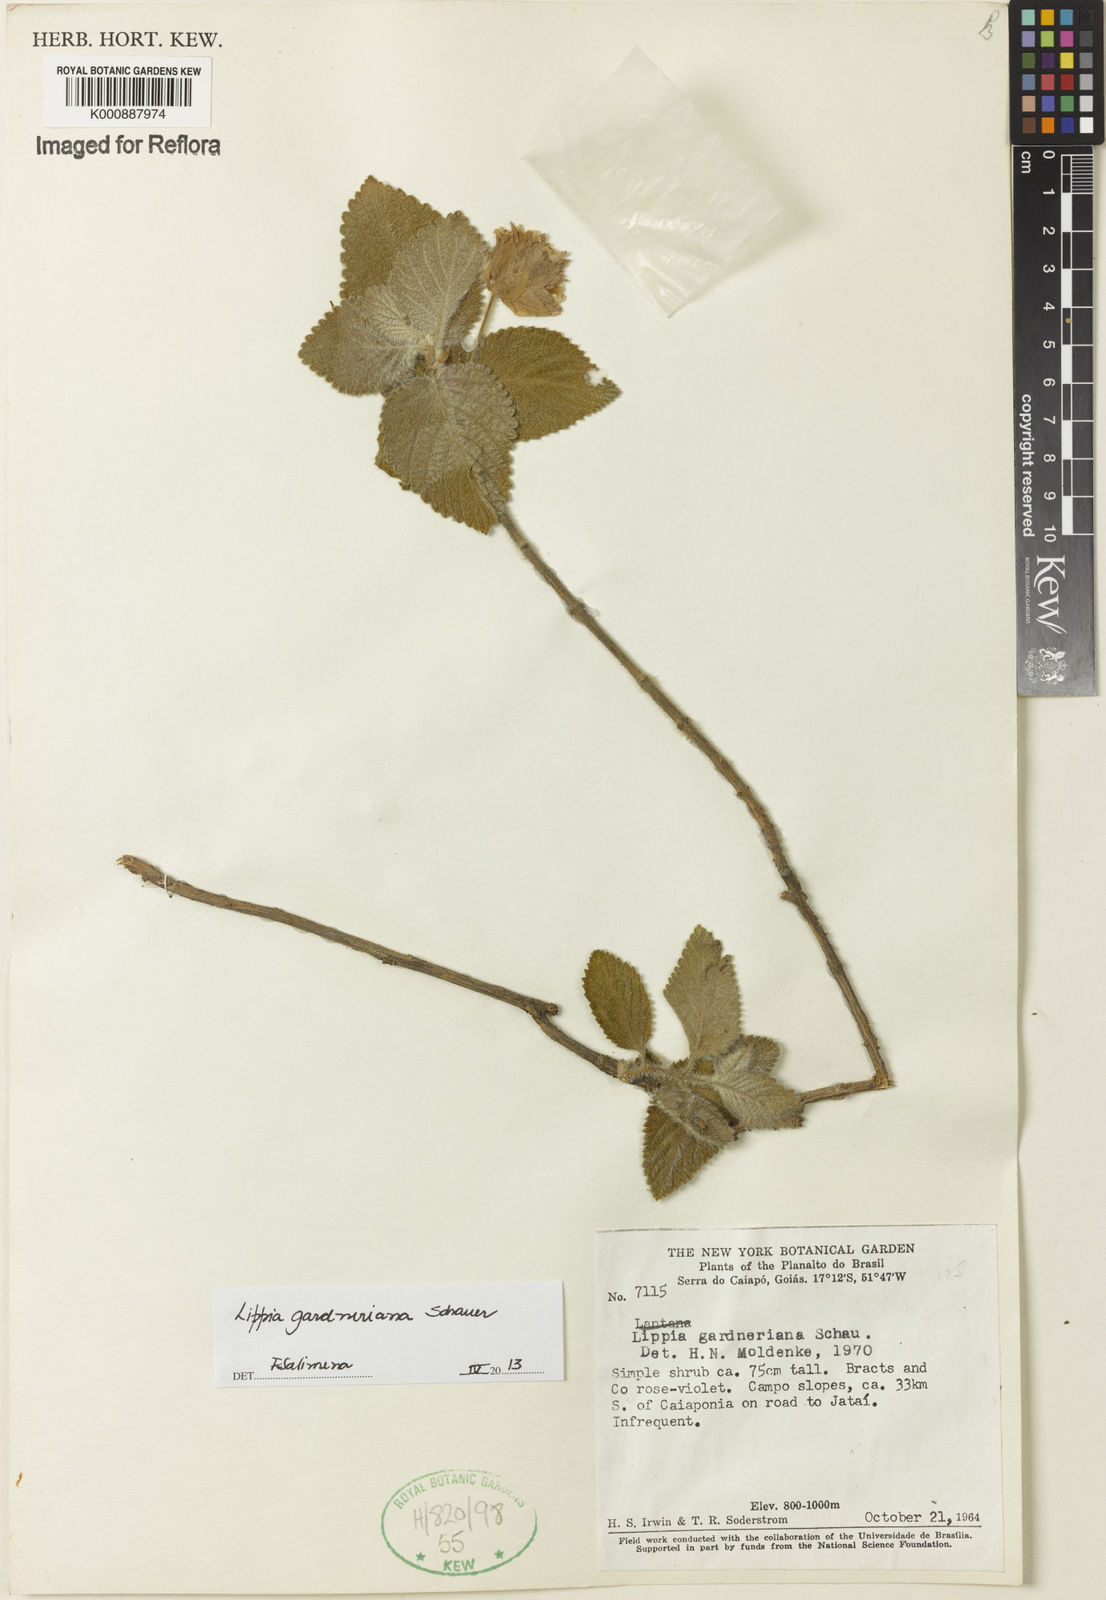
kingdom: Plantae
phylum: Tracheophyta
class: Magnoliopsida
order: Lamiales
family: Verbenaceae
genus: Lippia
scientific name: Lippia gardneriana
